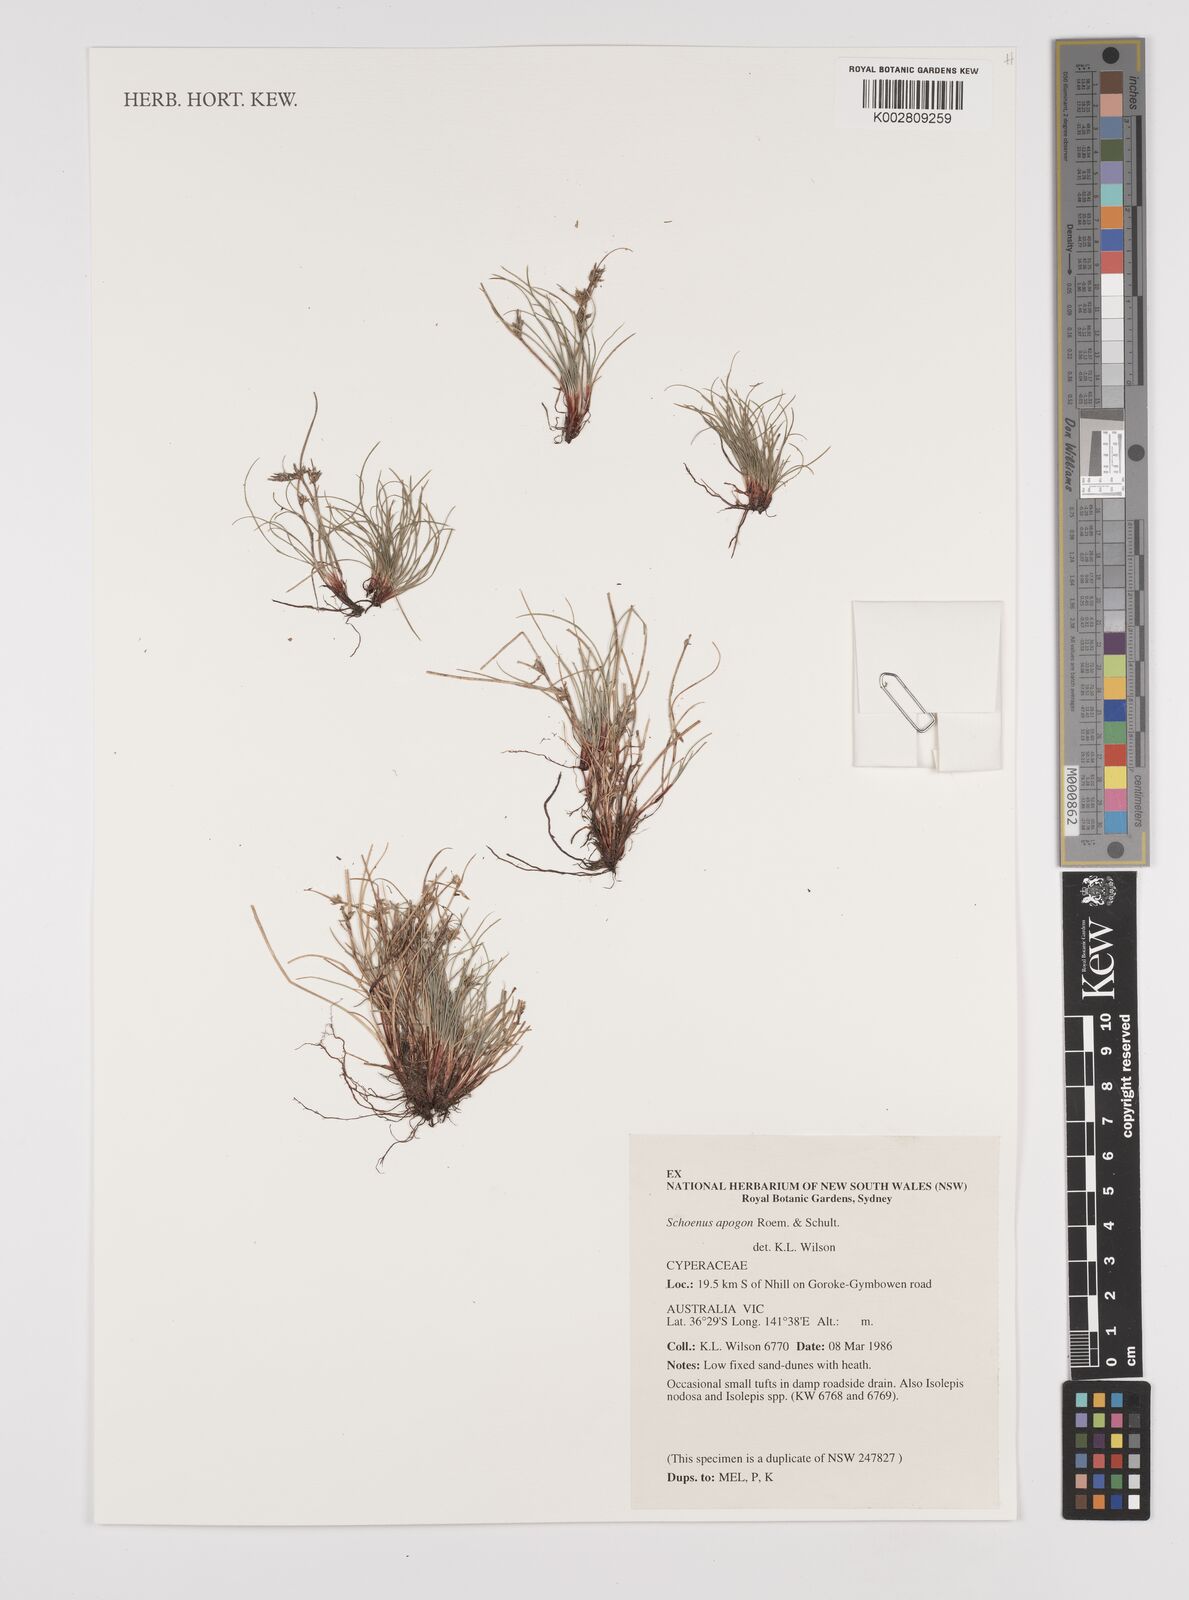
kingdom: Plantae
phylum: Tracheophyta
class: Liliopsida
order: Poales
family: Cyperaceae
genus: Schoenus
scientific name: Schoenus apogon
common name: Smooth bogrush
